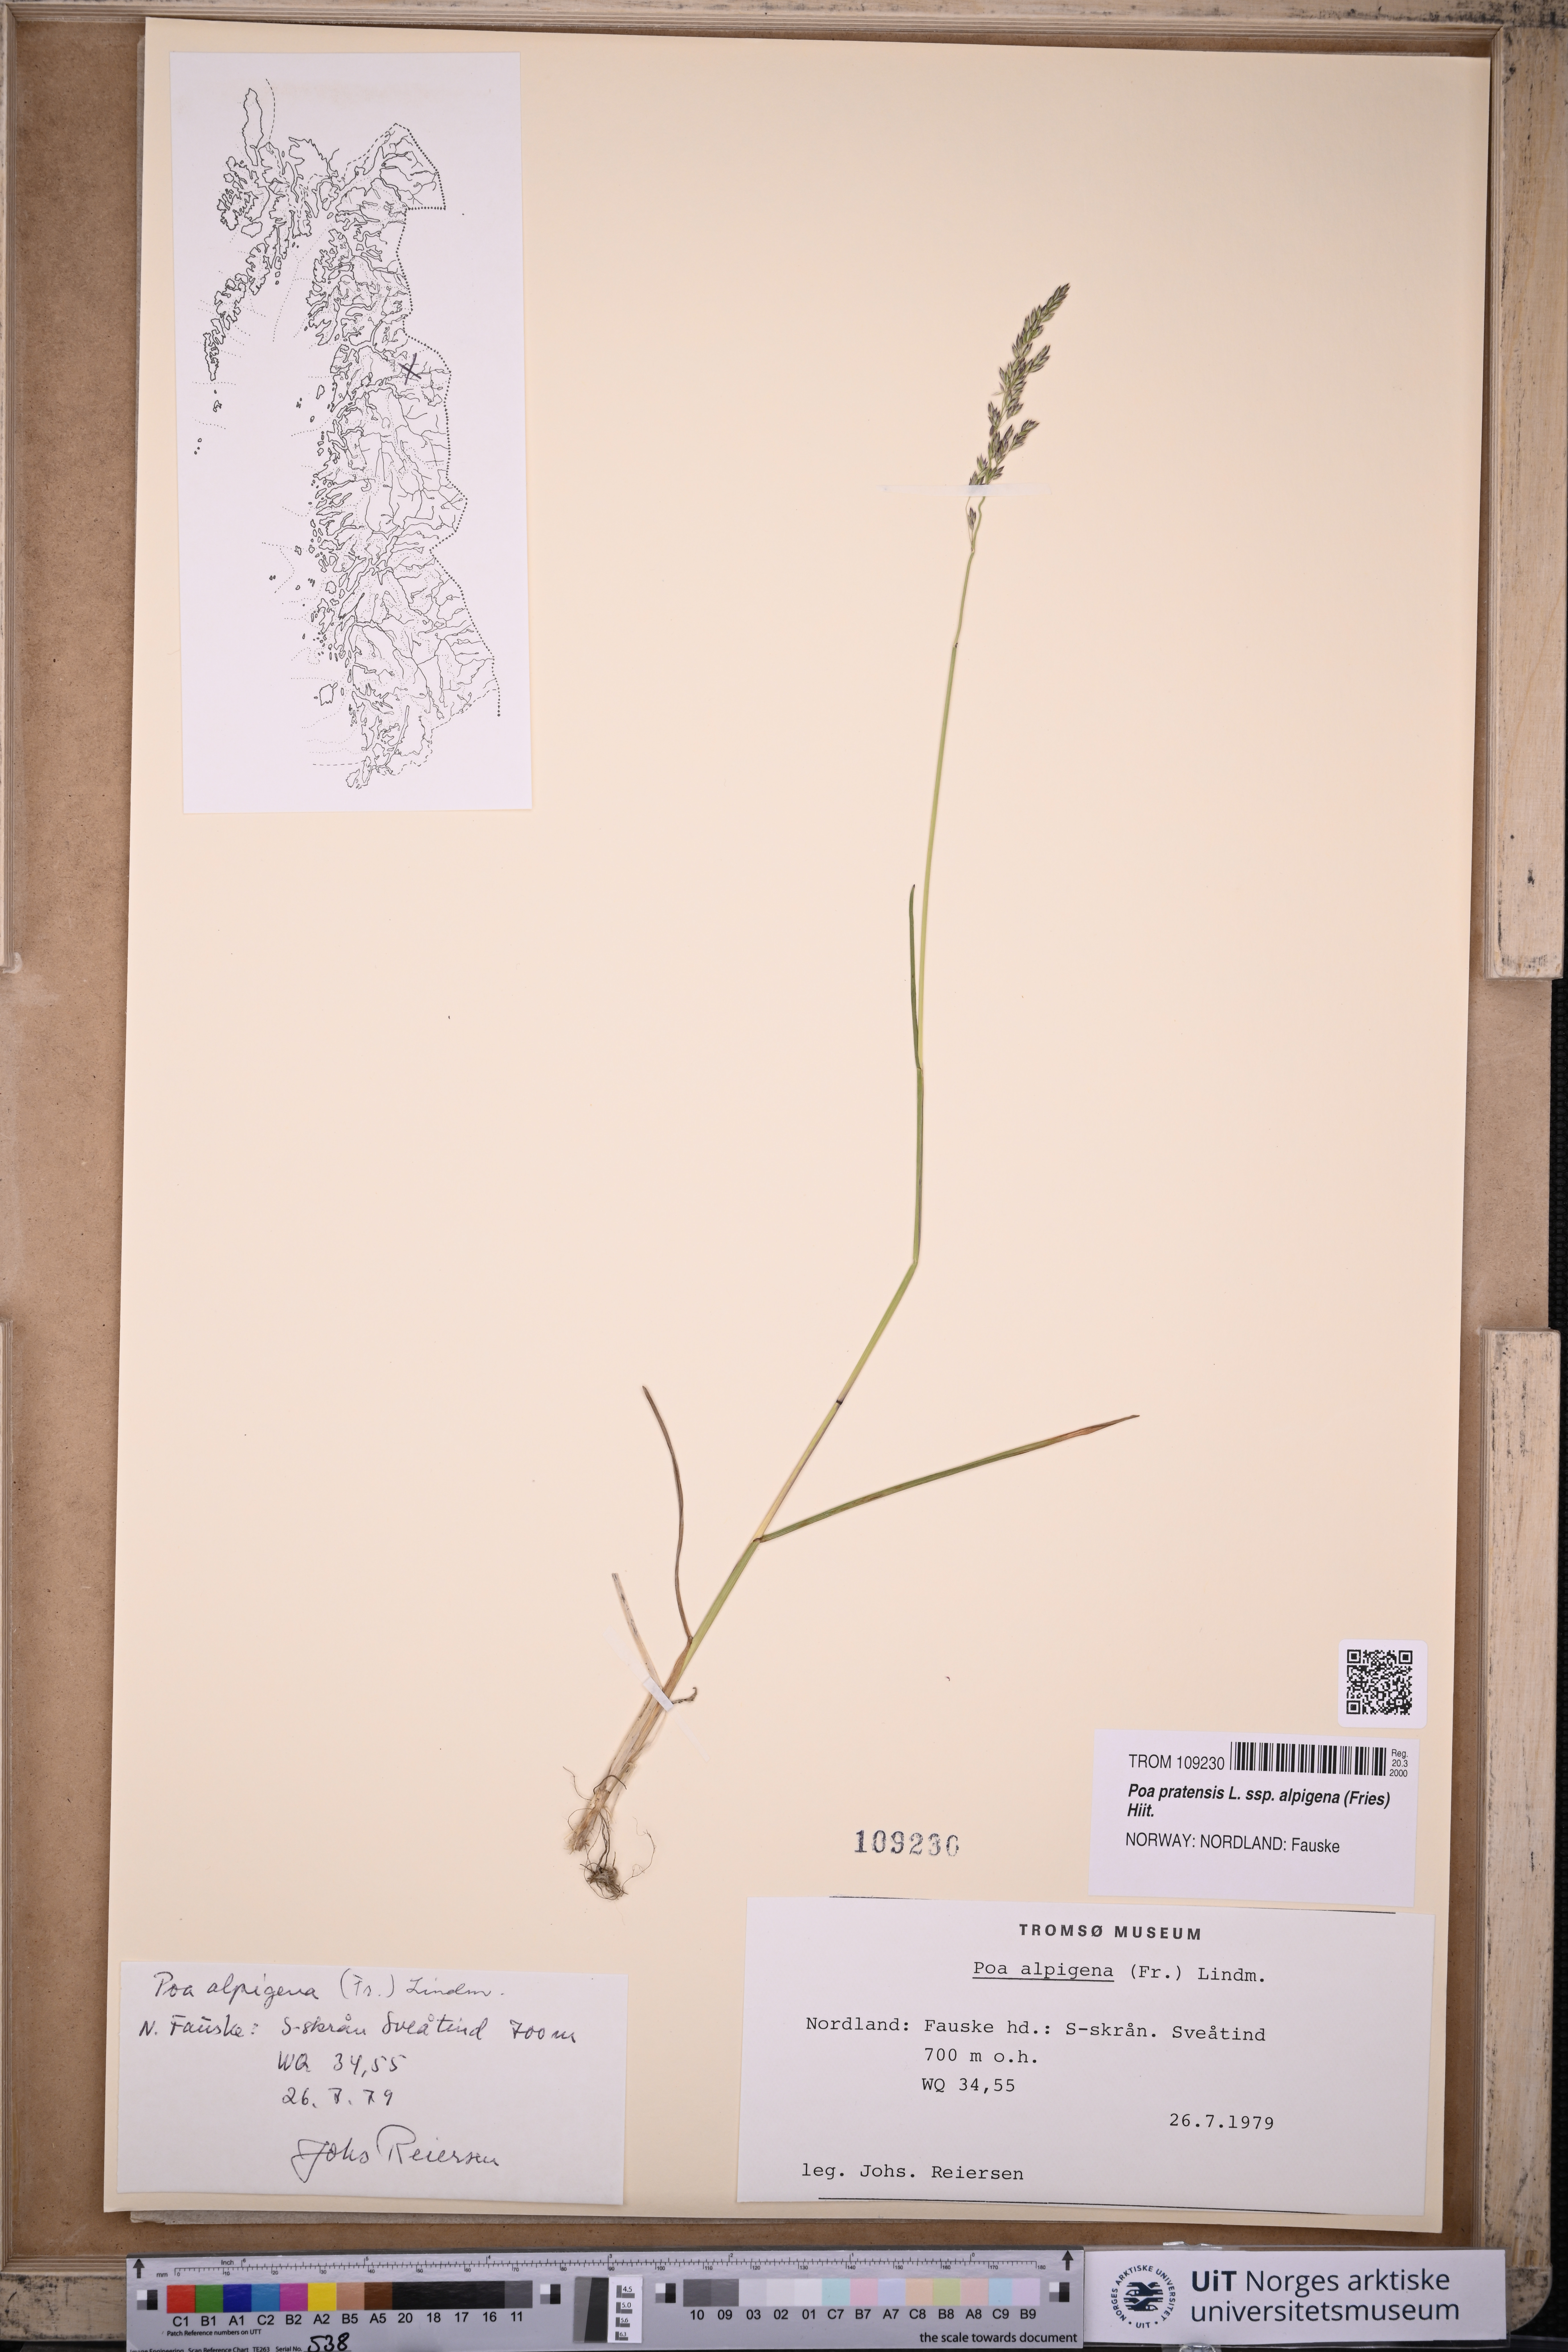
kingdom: Plantae
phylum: Tracheophyta
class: Liliopsida
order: Poales
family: Poaceae
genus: Poa
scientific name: Poa alpigena
